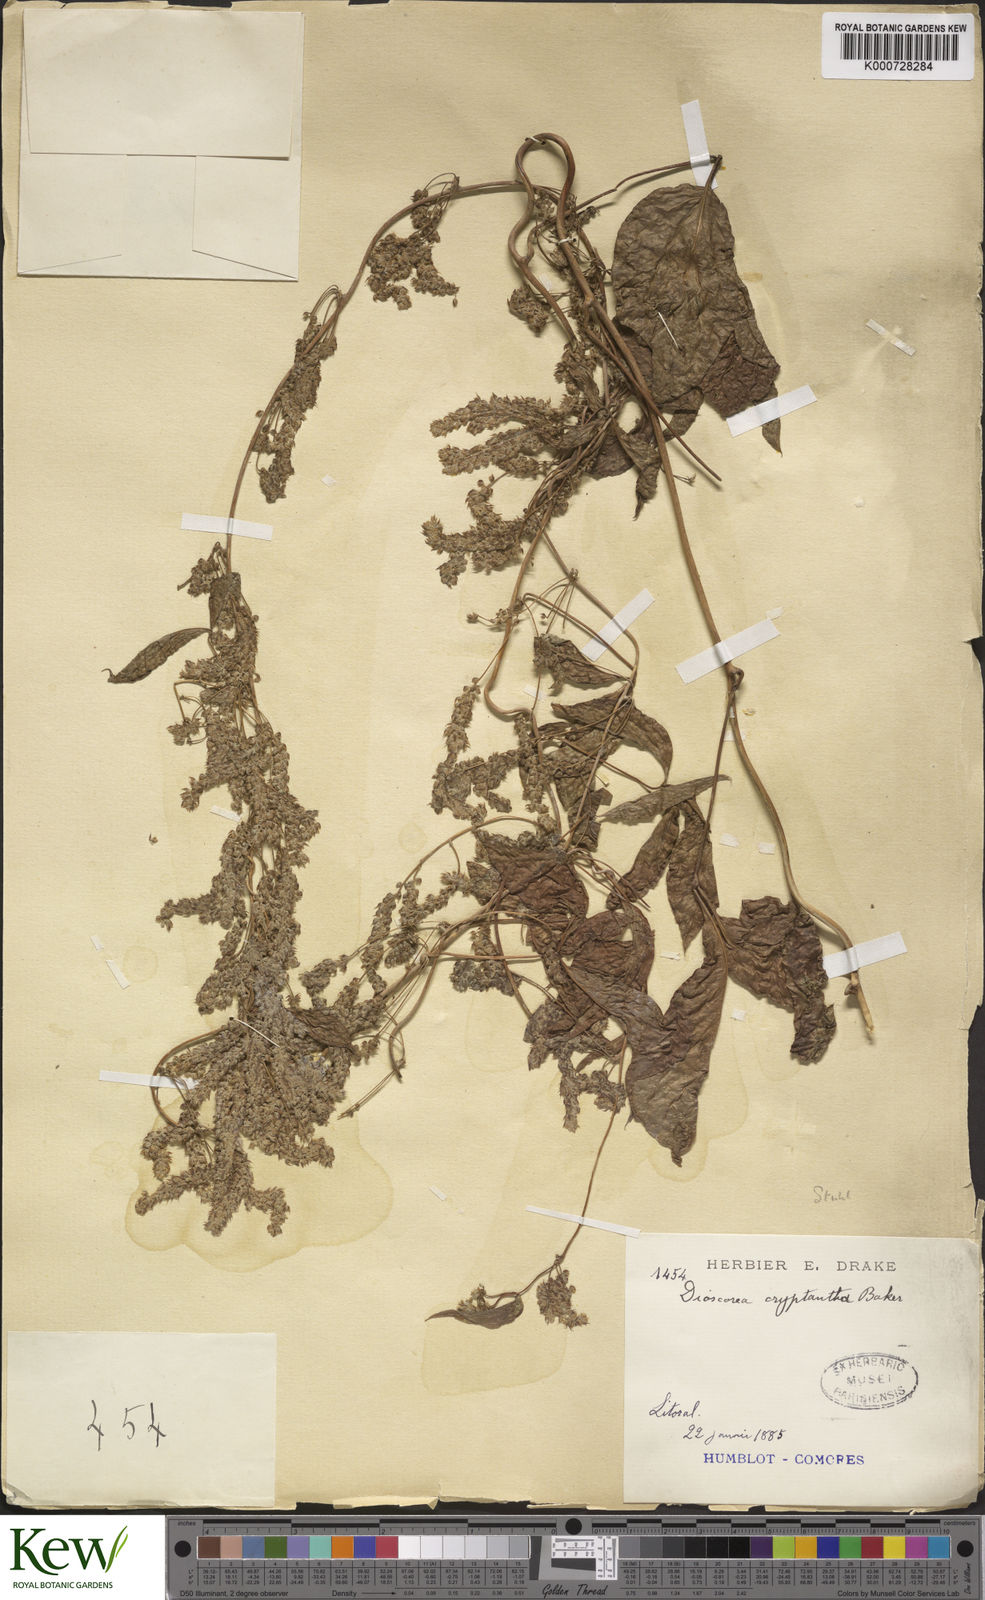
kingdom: Plantae
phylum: Tracheophyta
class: Liliopsida
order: Dioscoreales
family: Dioscoreaceae
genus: Dioscorea
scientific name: Dioscorea
